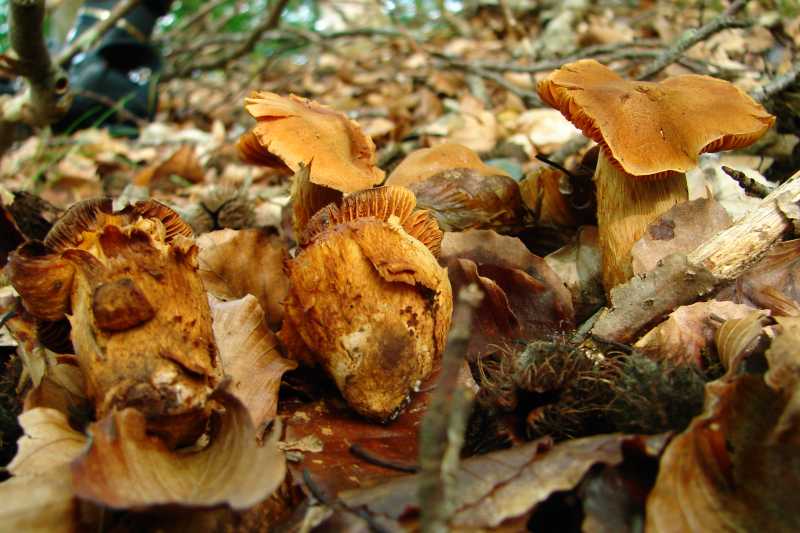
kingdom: Fungi
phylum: Basidiomycota
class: Agaricomycetes
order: Agaricales
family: Cortinariaceae
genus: Cortinarius
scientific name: Cortinarius rubellus
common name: puklet gift-slørhat
